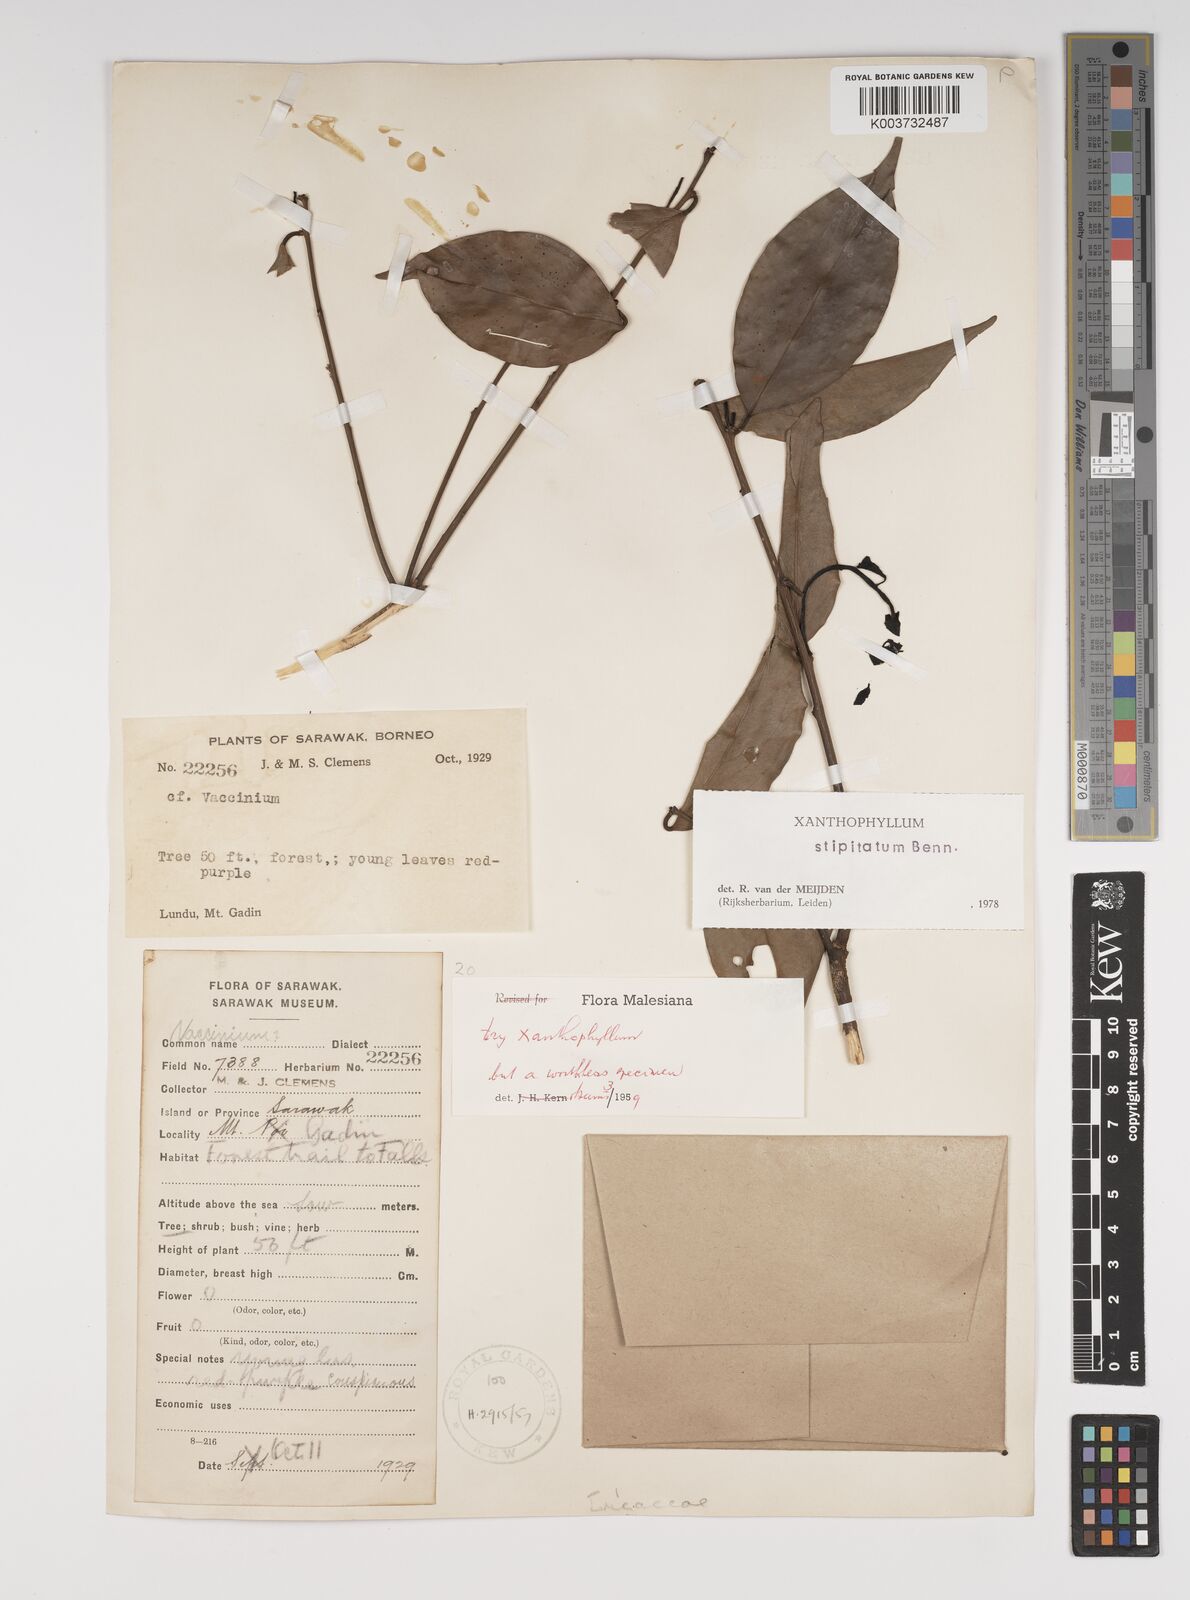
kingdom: Plantae
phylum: Tracheophyta
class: Magnoliopsida
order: Fabales
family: Polygalaceae
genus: Xanthophyllum
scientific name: Xanthophyllum stipitatum
